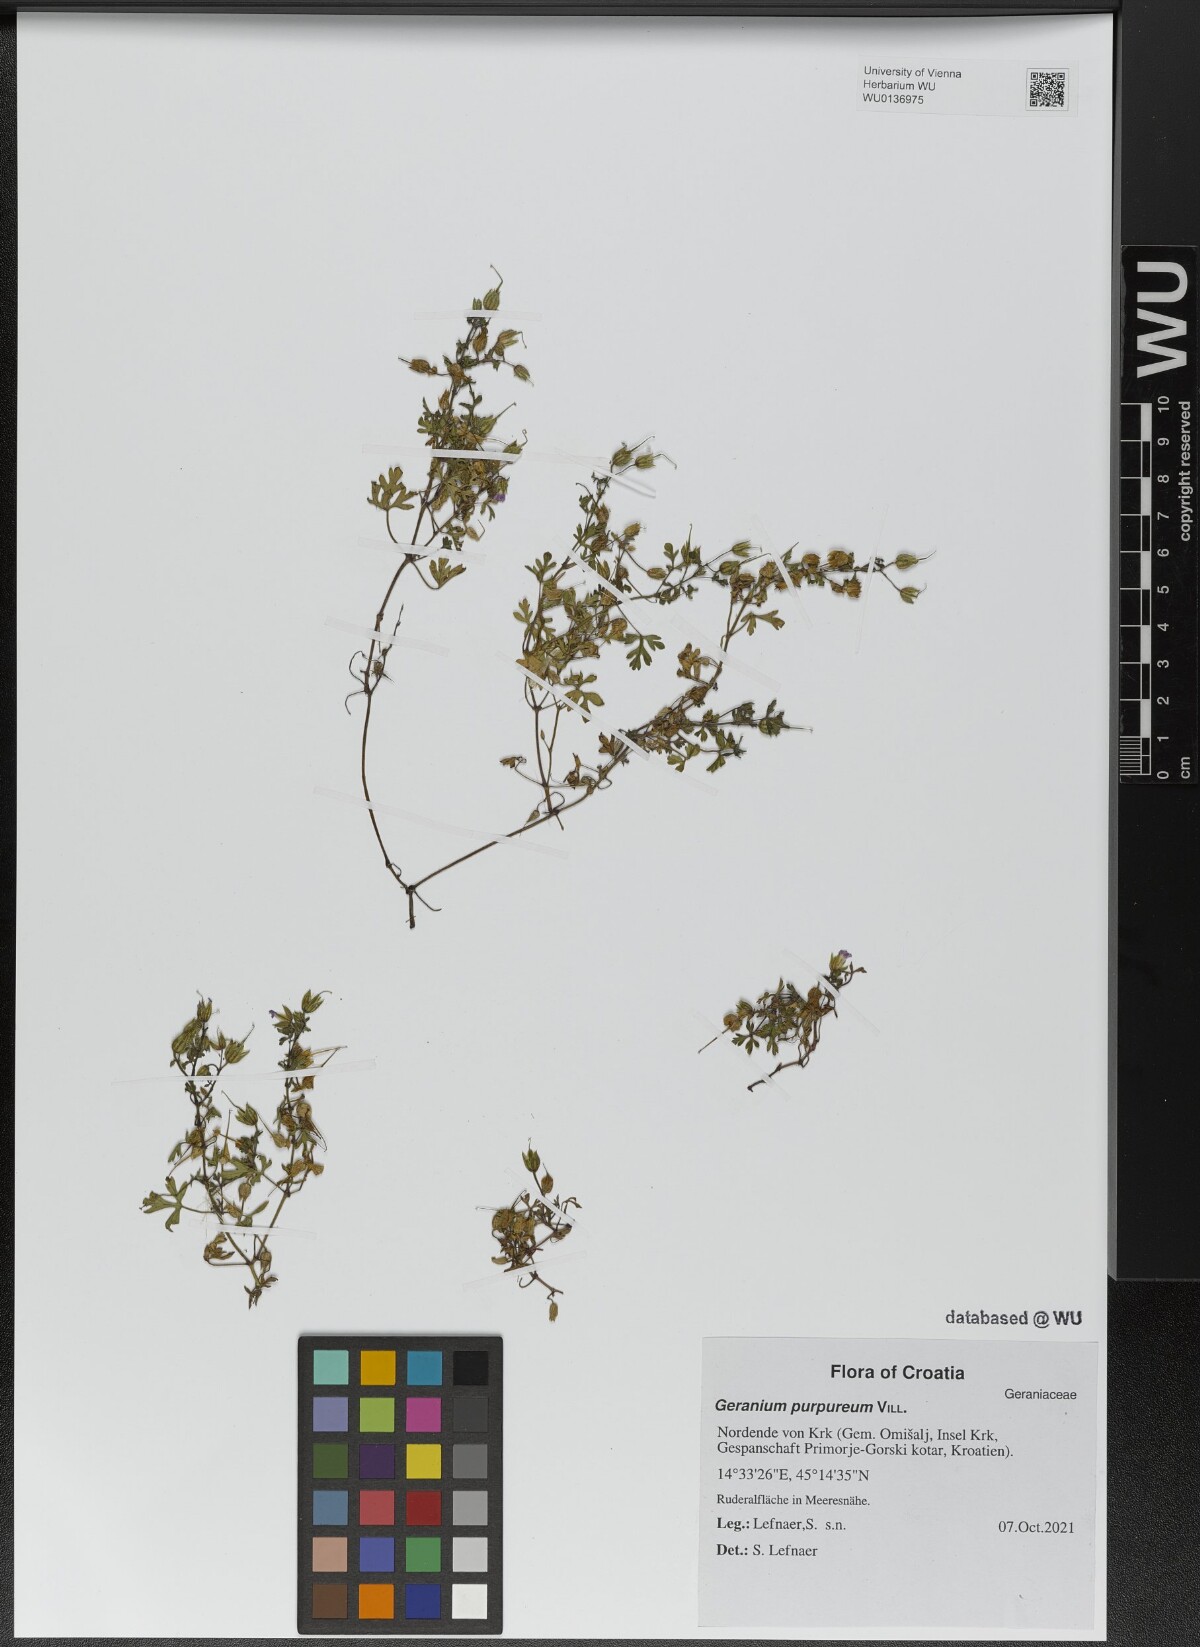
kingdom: Plantae
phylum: Tracheophyta
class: Magnoliopsida
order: Geraniales
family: Geraniaceae
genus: Geranium
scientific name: Geranium purpureum
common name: Little-robin
